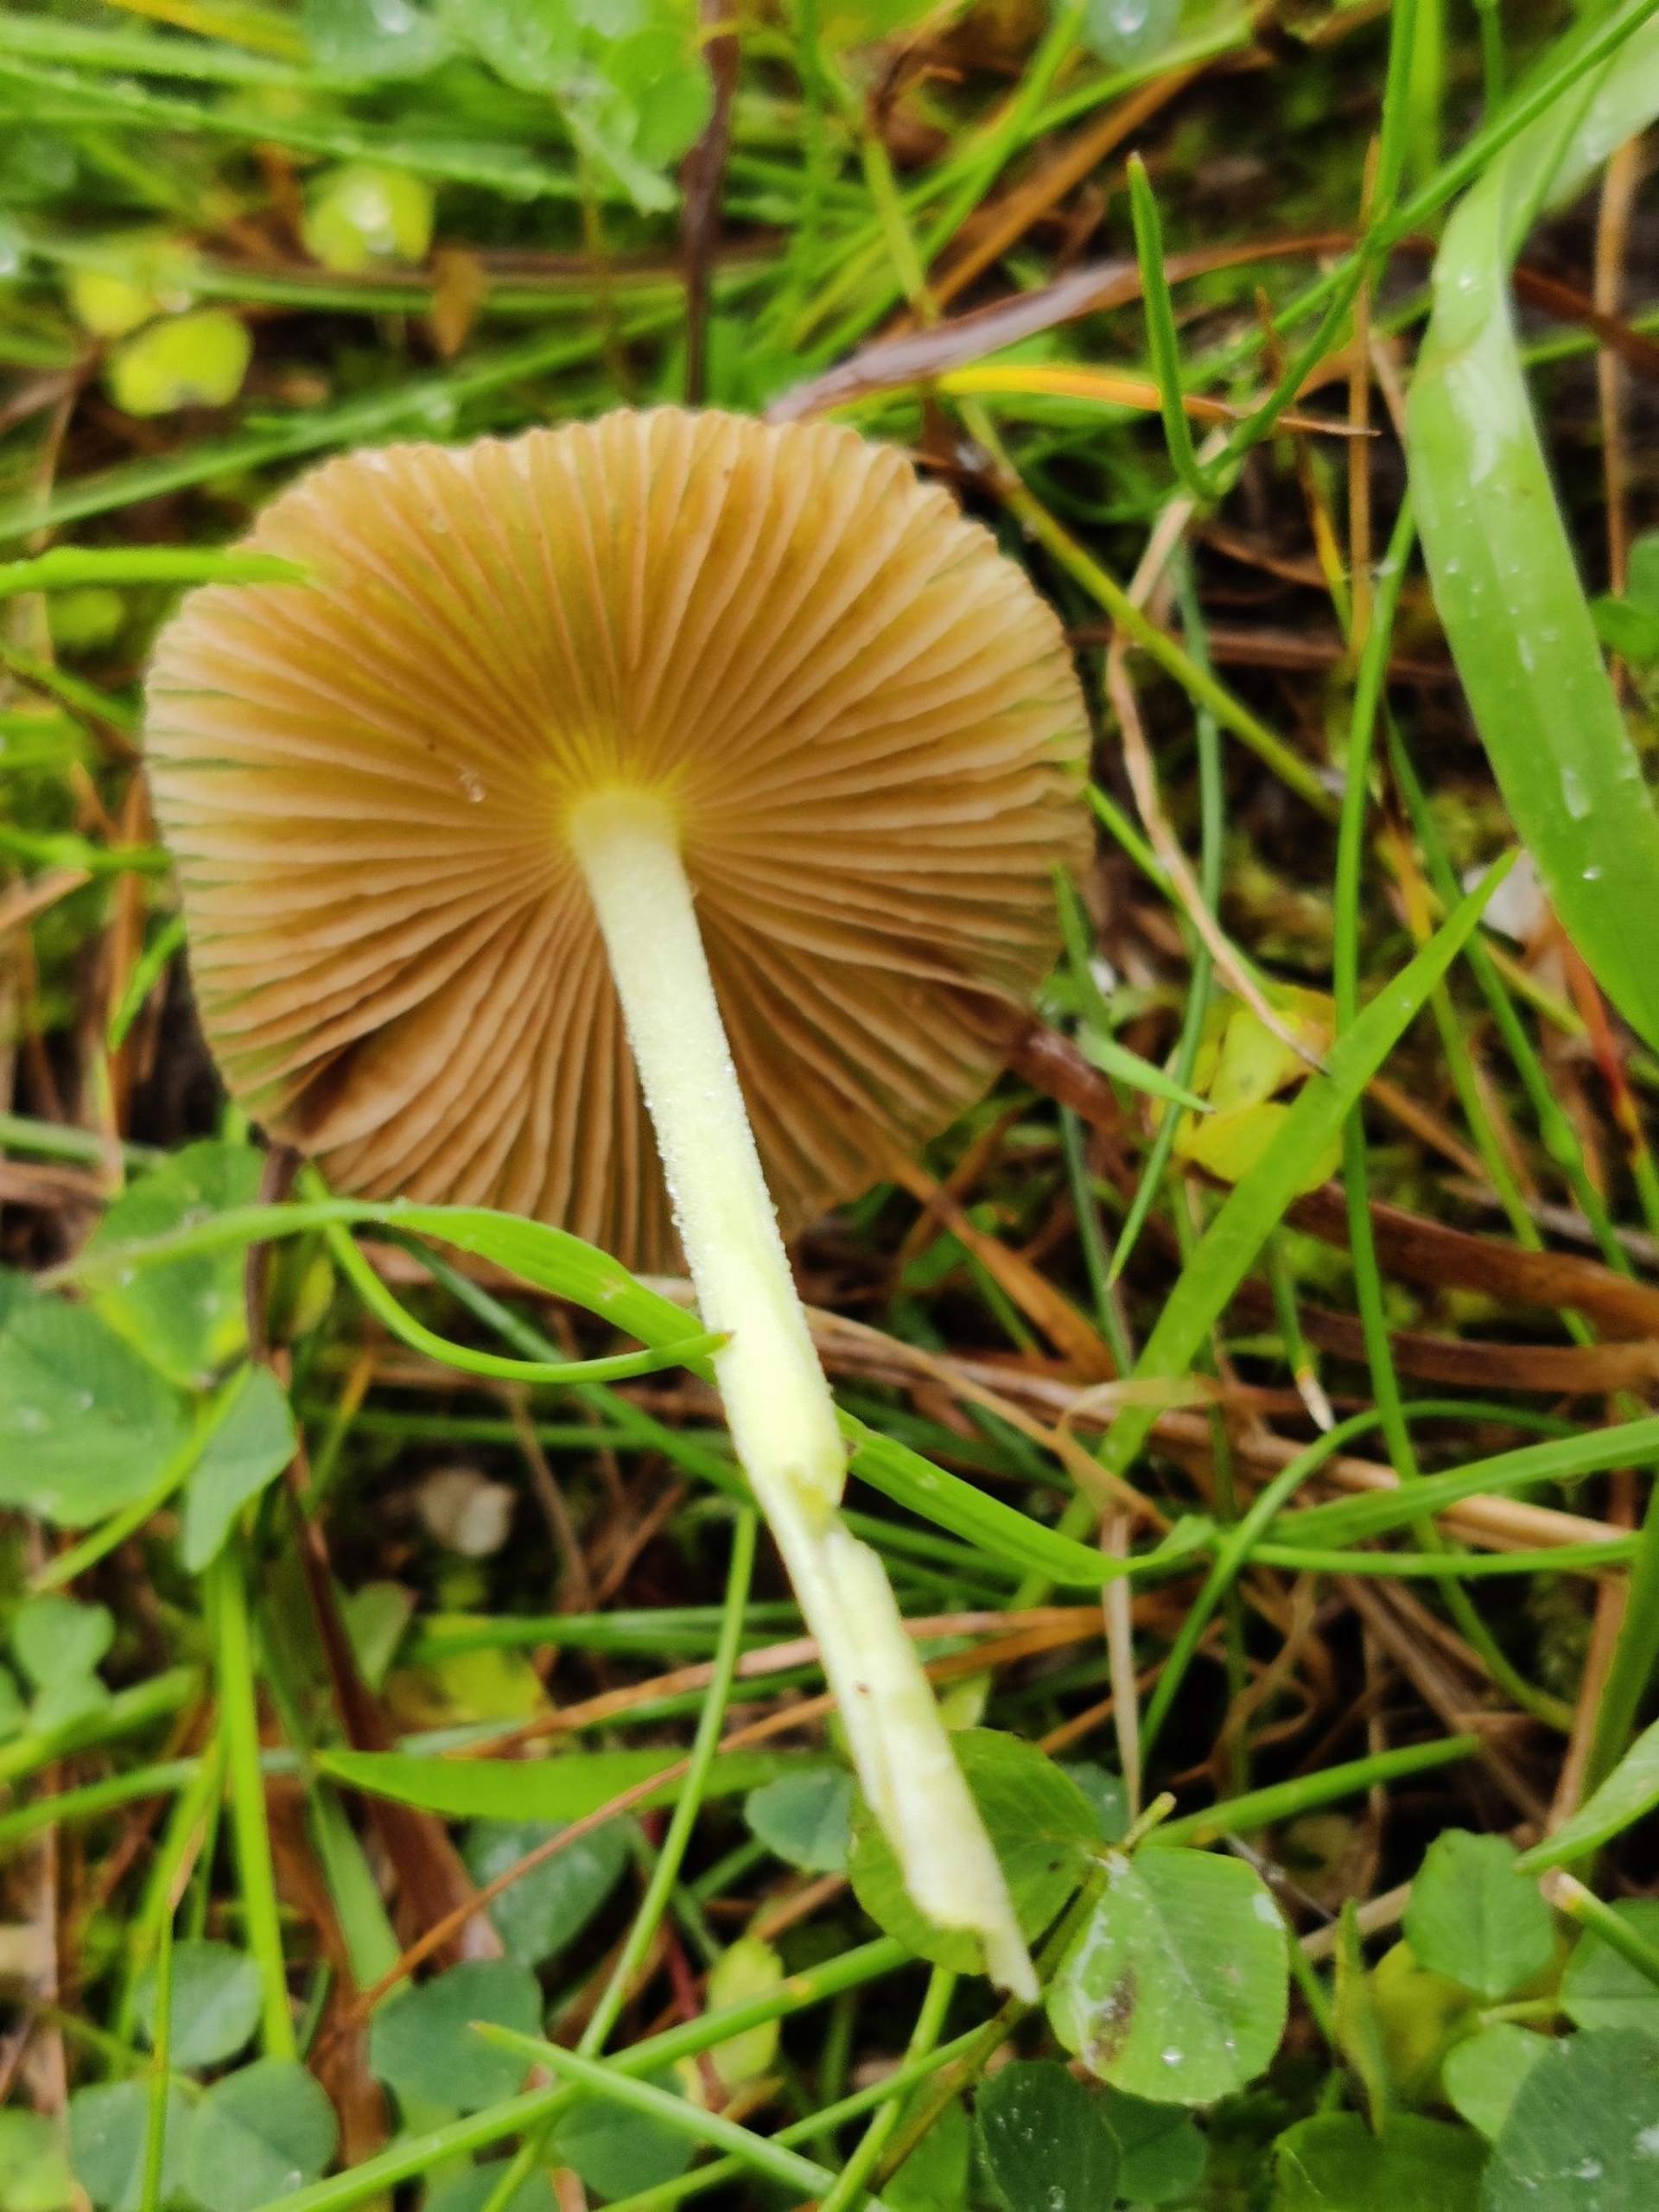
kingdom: Fungi
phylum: Basidiomycota
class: Agaricomycetes
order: Agaricales
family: Bolbitiaceae
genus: Bolbitius
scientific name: Bolbitius titubans
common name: Almindelig gulhat
